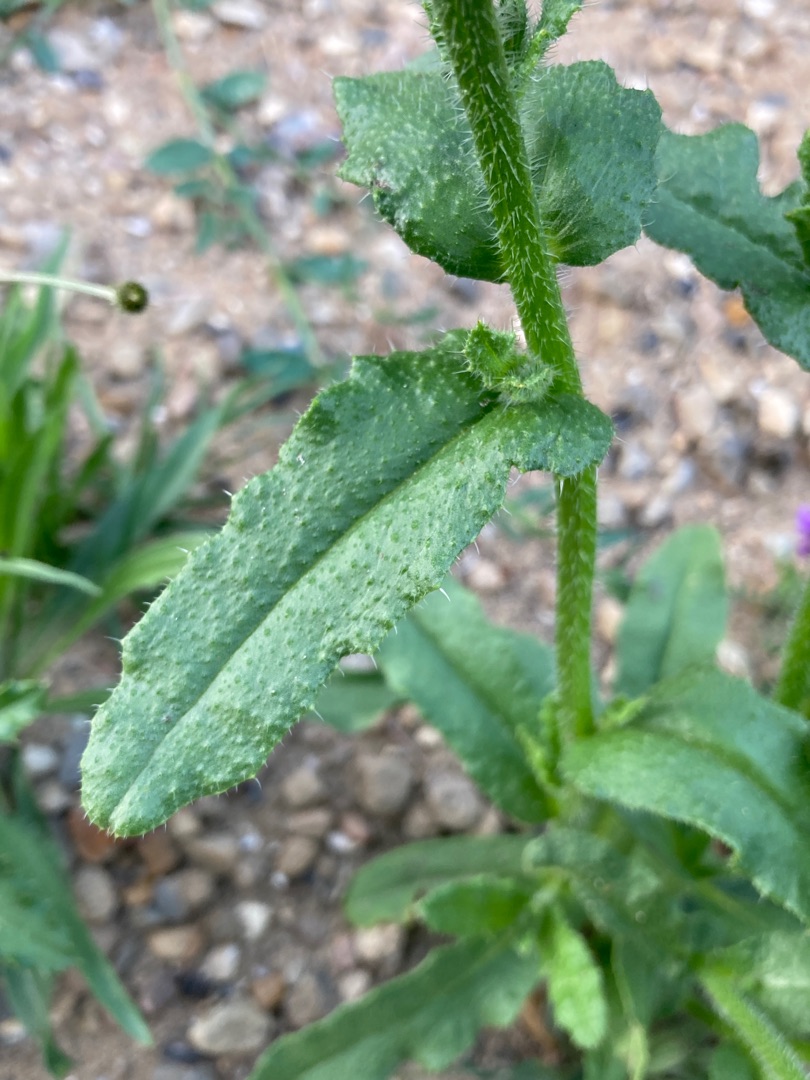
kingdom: Plantae
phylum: Tracheophyta
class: Magnoliopsida
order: Boraginales
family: Boraginaceae
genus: Lycopsis
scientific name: Lycopsis arvensis
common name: Krumhals
